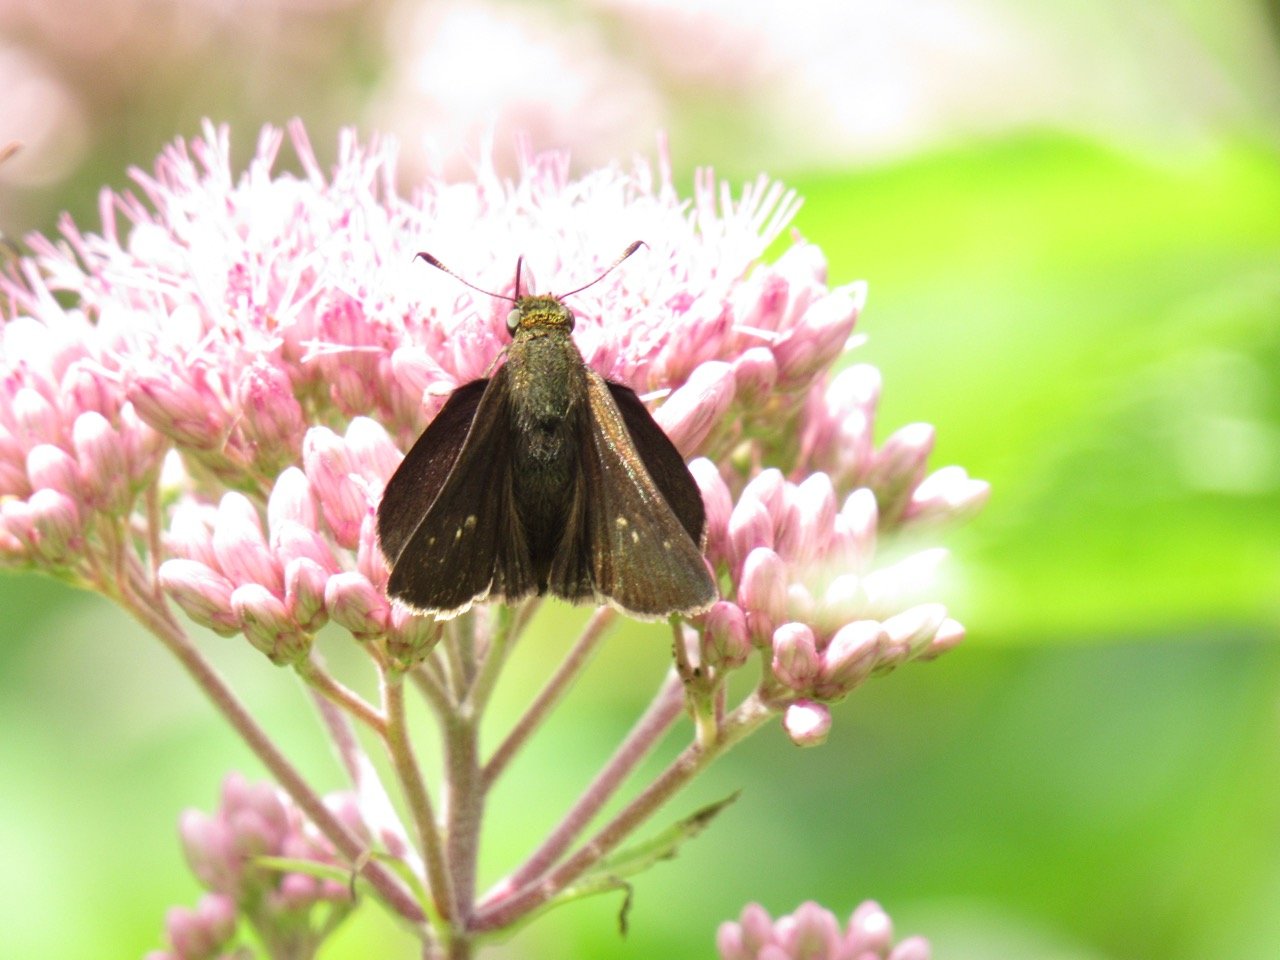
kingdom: Animalia
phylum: Arthropoda
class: Insecta
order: Lepidoptera
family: Hesperiidae
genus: Euphyes
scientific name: Euphyes vestris
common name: Dun Skipper
